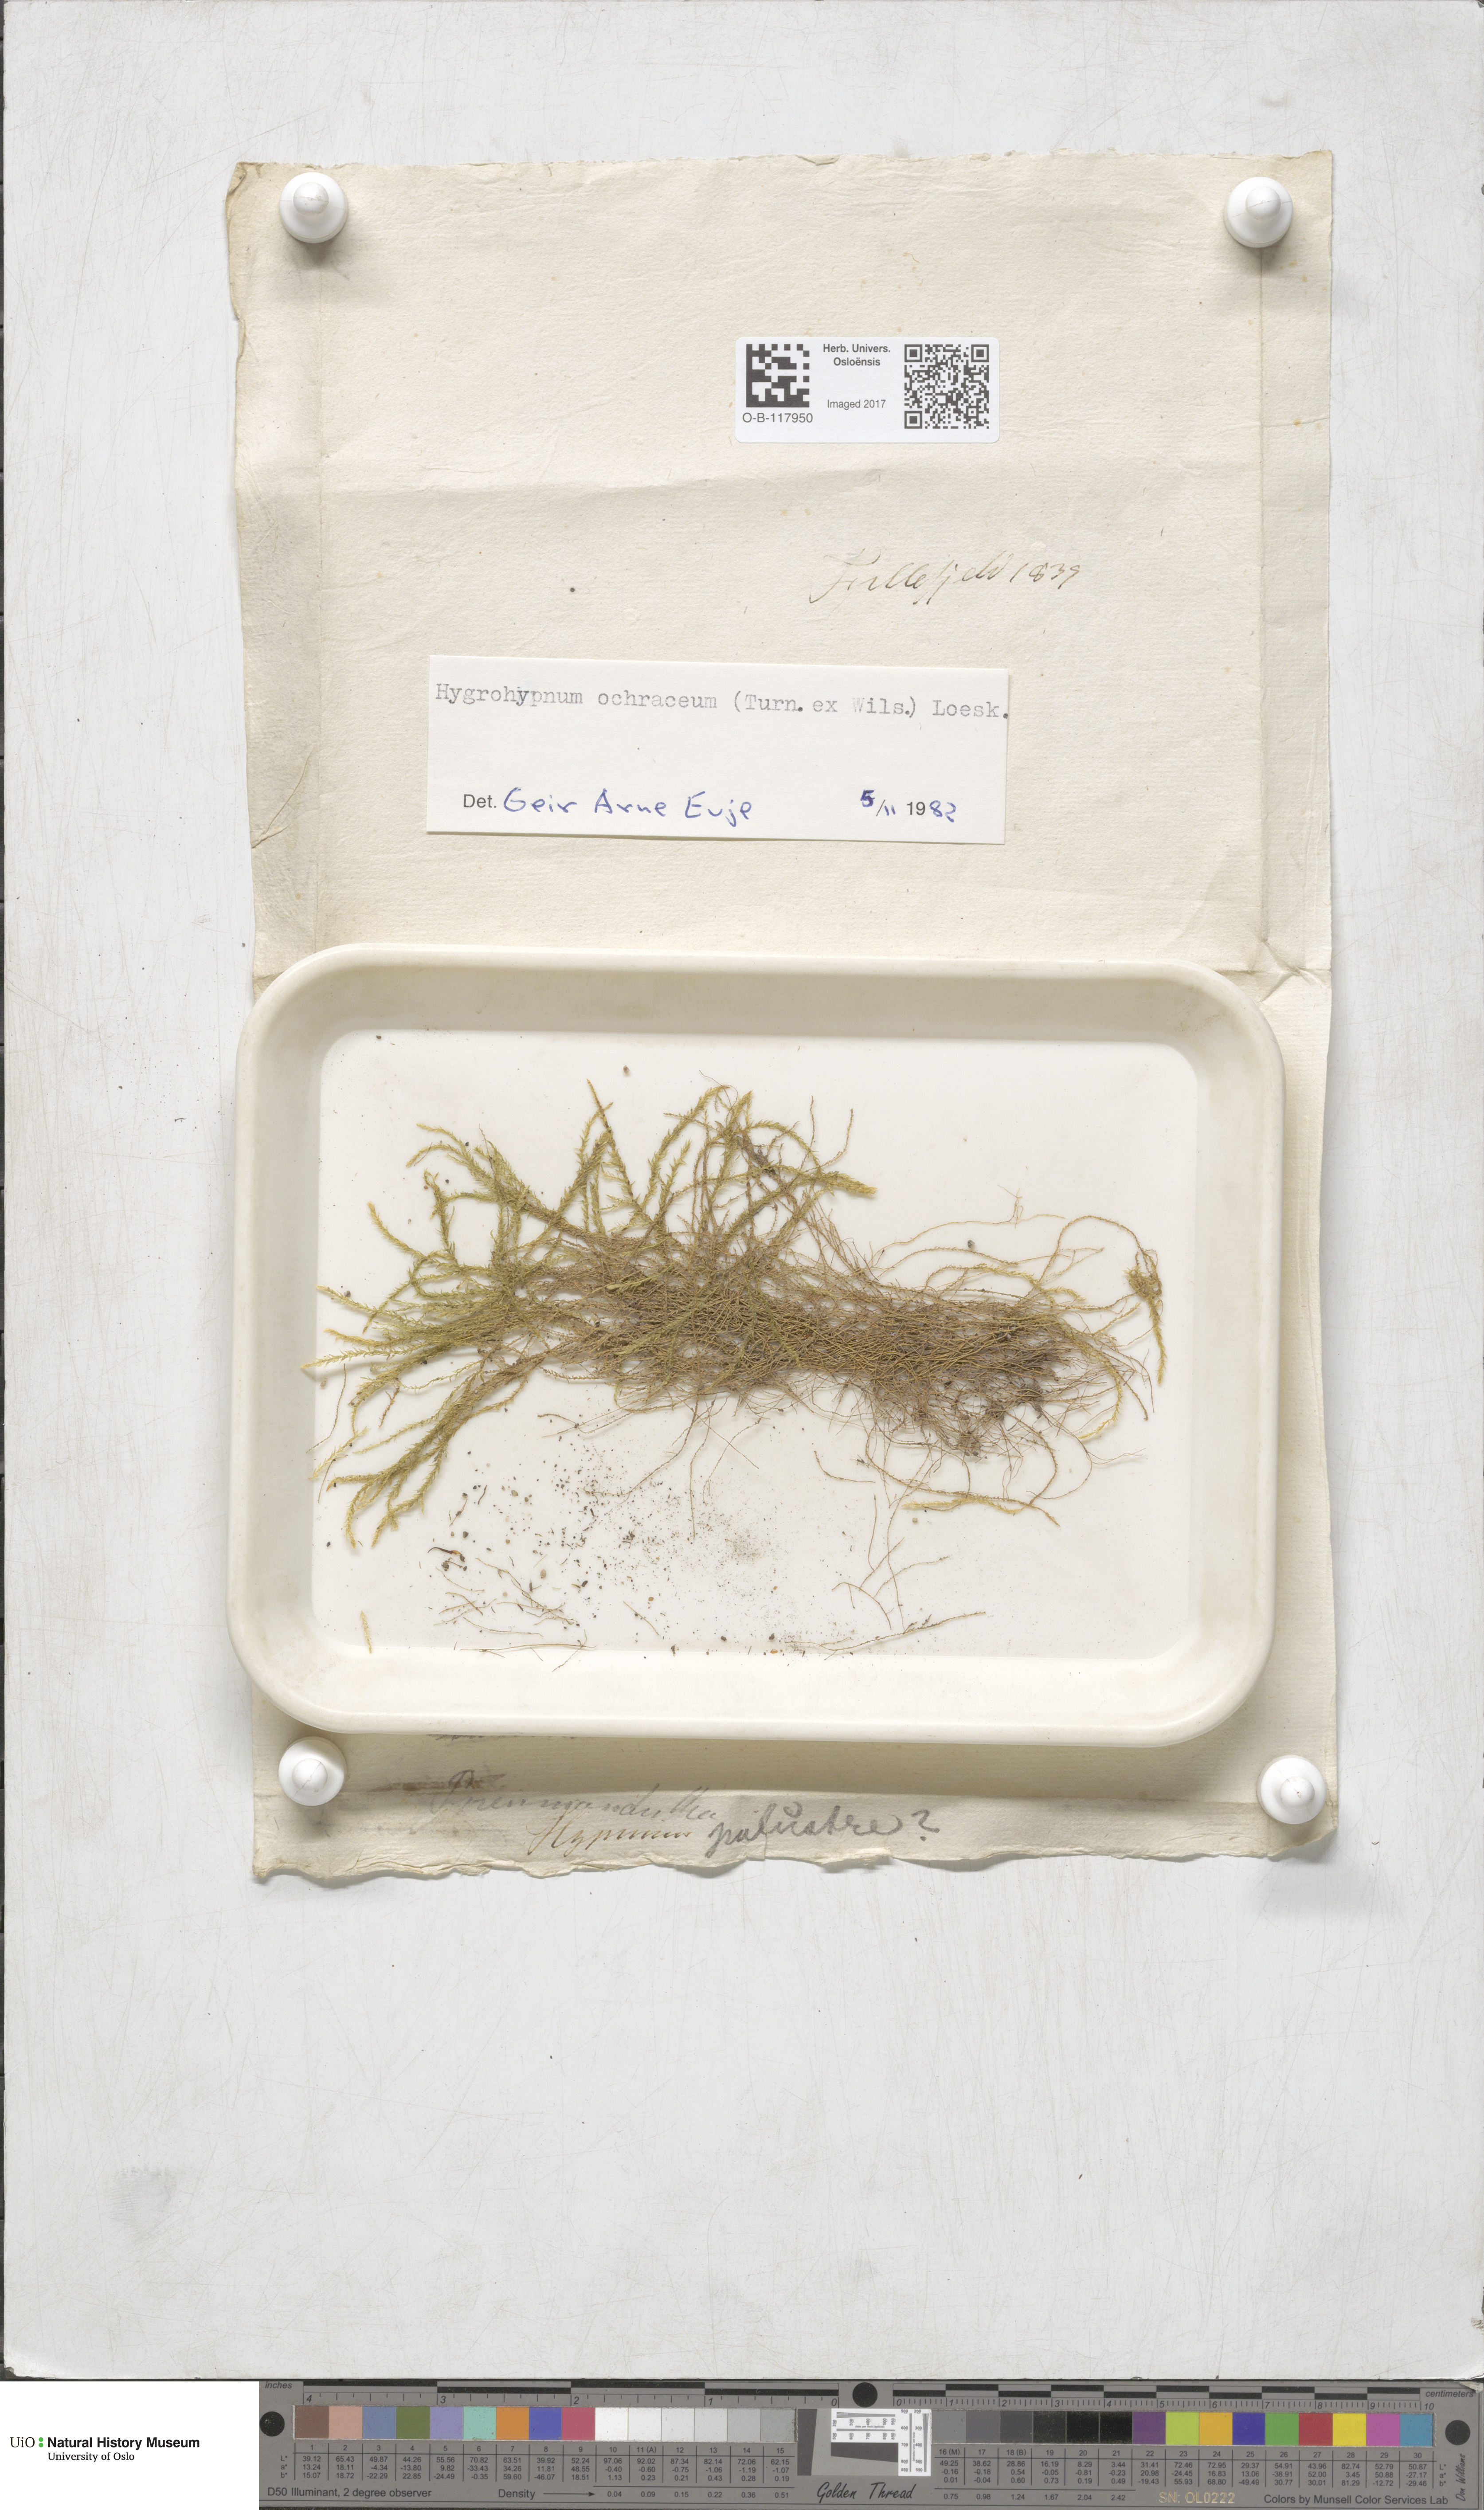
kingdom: Plantae
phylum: Bryophyta
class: Bryopsida
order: Hypnales
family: Scorpidiaceae
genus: Hygrohypnella
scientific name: Hygrohypnella ochracea
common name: Hygrohypnum moss
